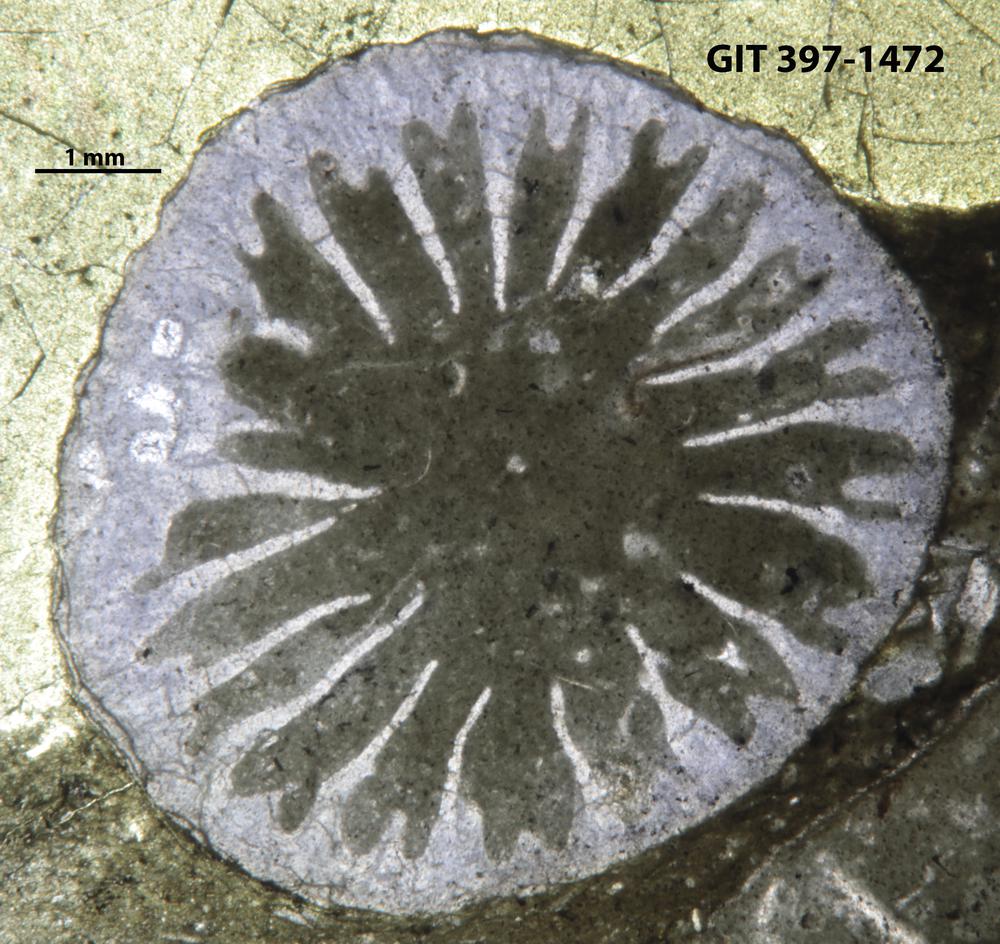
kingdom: Animalia
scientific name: Animalia
